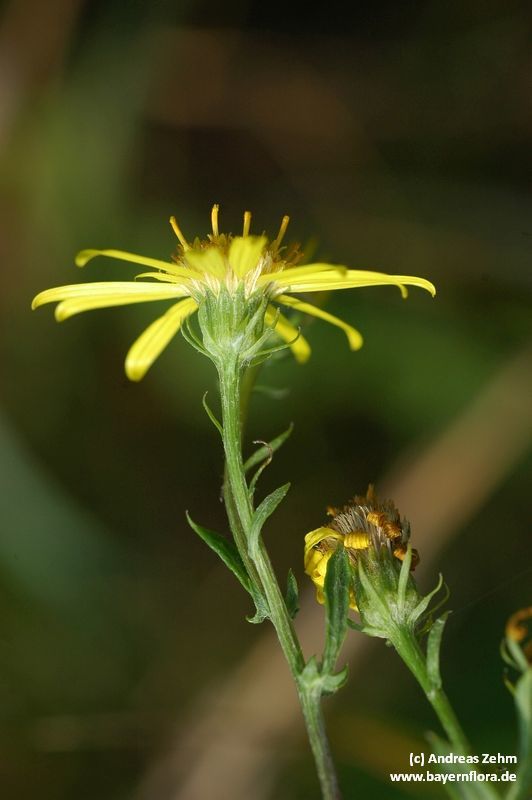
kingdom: Plantae
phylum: Tracheophyta
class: Magnoliopsida
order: Asterales
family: Asteraceae
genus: Jacobaea
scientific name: Jacobaea erucifolia
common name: Hoary ragwort
